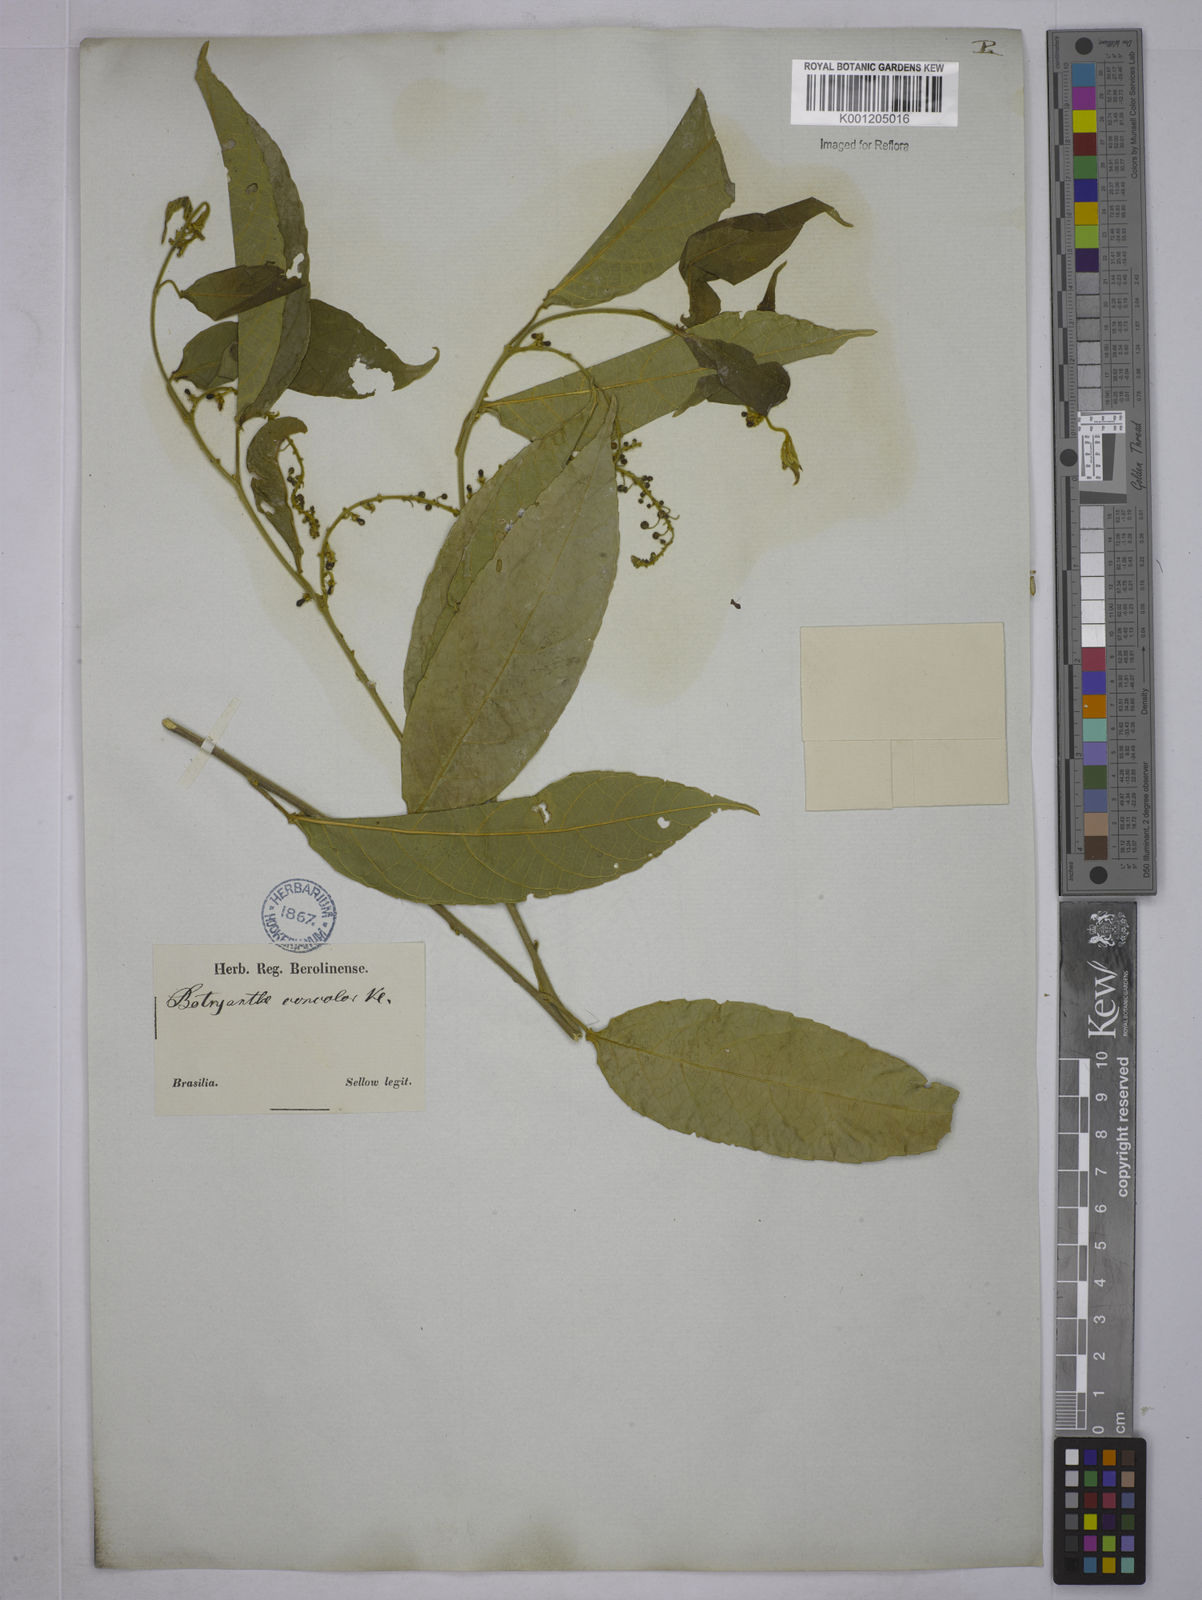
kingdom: Plantae
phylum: Tracheophyta
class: Magnoliopsida
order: Malpighiales
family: Euphorbiaceae
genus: Plukenetia
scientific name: Plukenetia serrata
